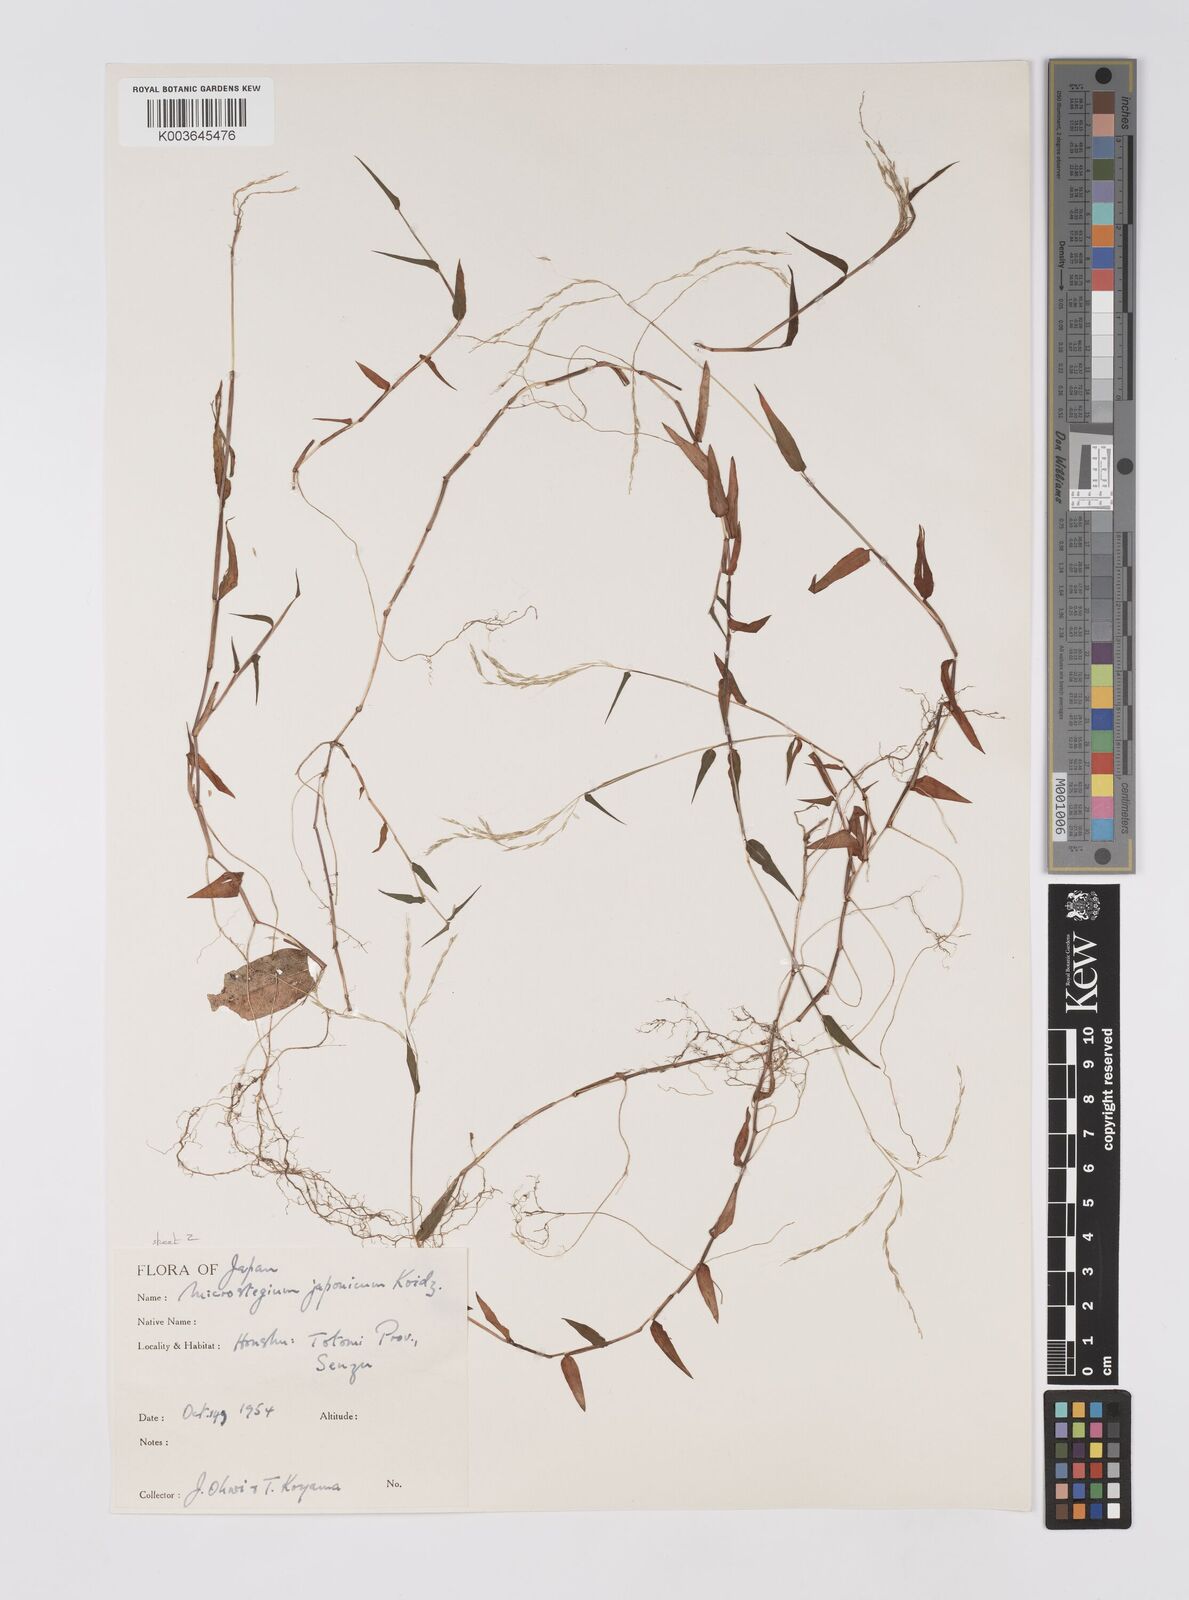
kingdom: Plantae
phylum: Tracheophyta
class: Liliopsida
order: Poales
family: Poaceae
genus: Microstegium
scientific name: Microstegium japonicum
